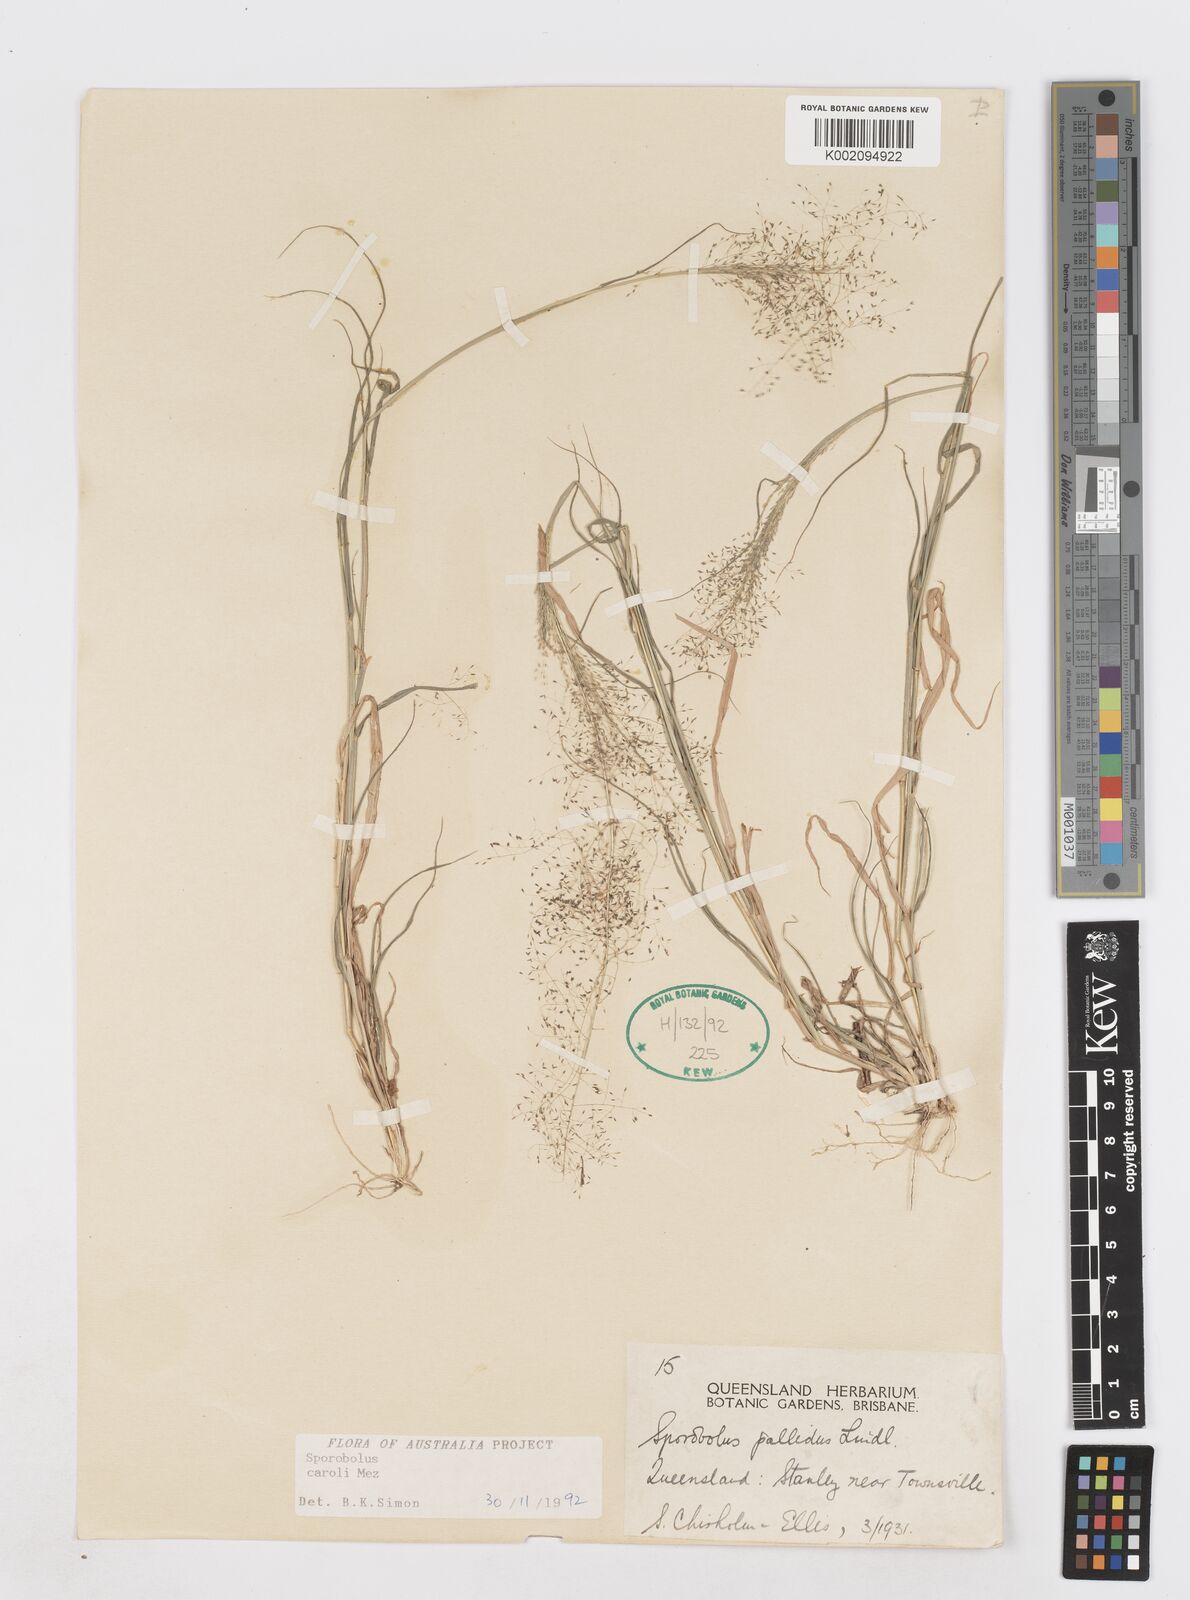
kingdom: Plantae
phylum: Tracheophyta
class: Liliopsida
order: Poales
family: Poaceae
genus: Sporobolus
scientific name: Sporobolus caroli
